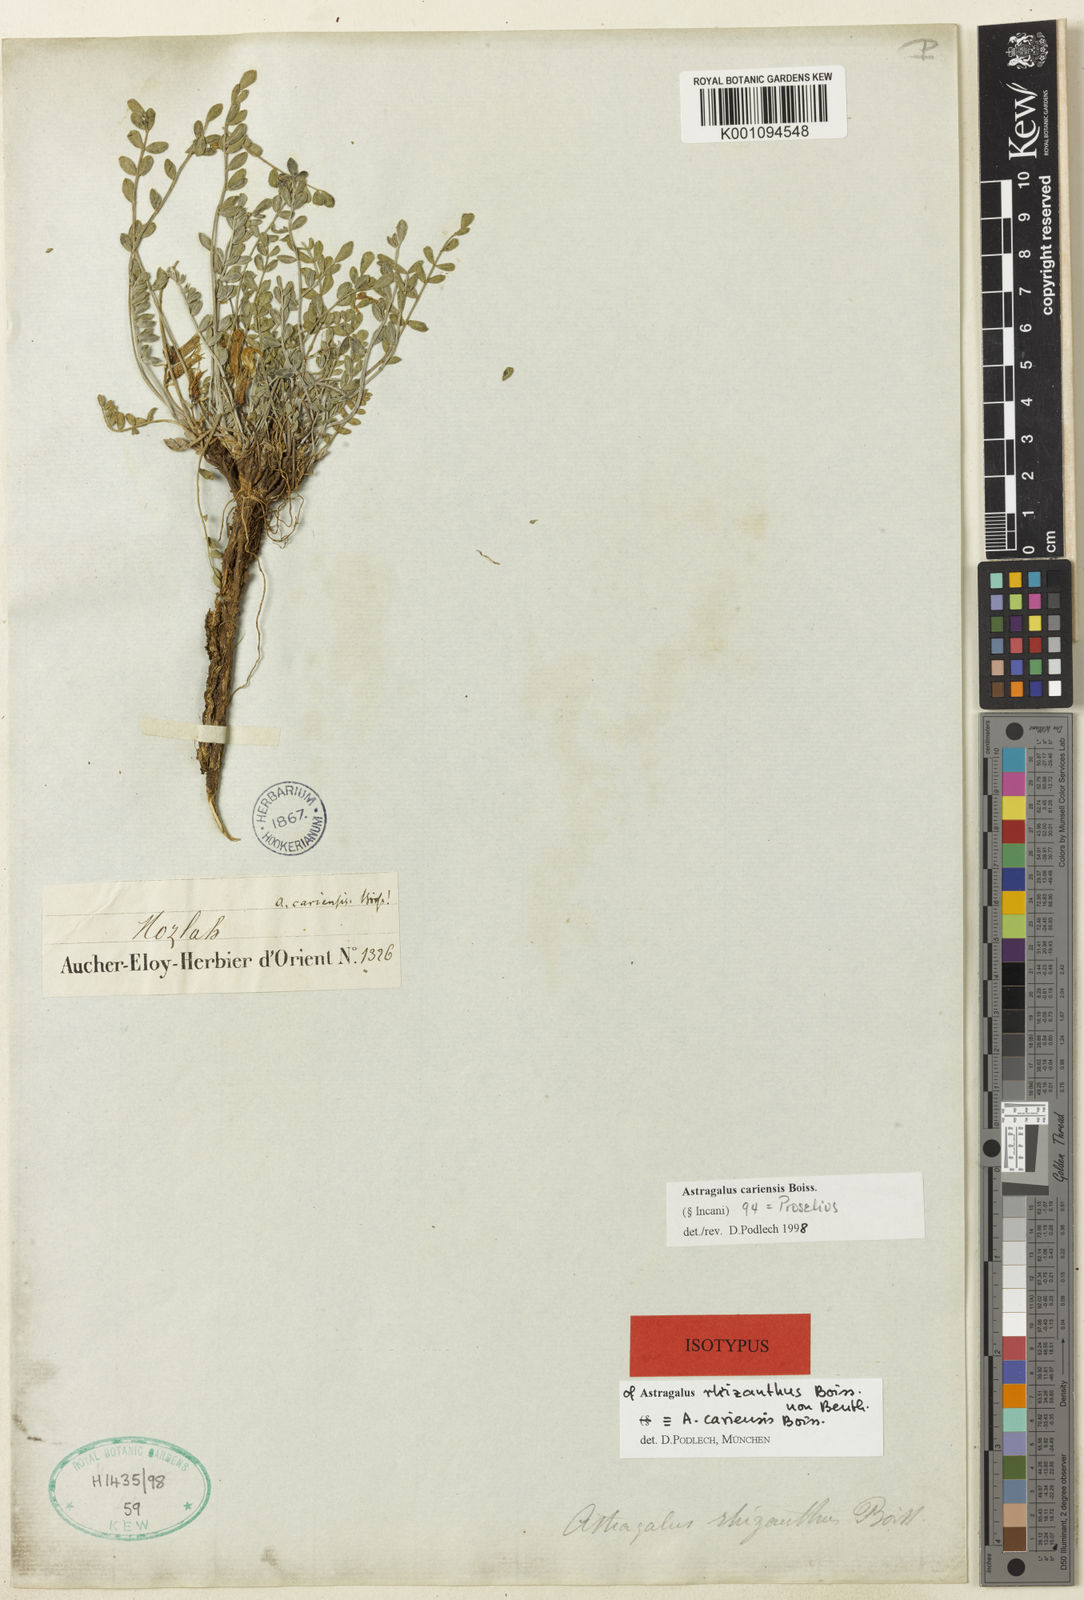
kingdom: Plantae
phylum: Tracheophyta
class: Magnoliopsida
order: Fabales
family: Fabaceae
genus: Astragalus
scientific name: Astragalus
